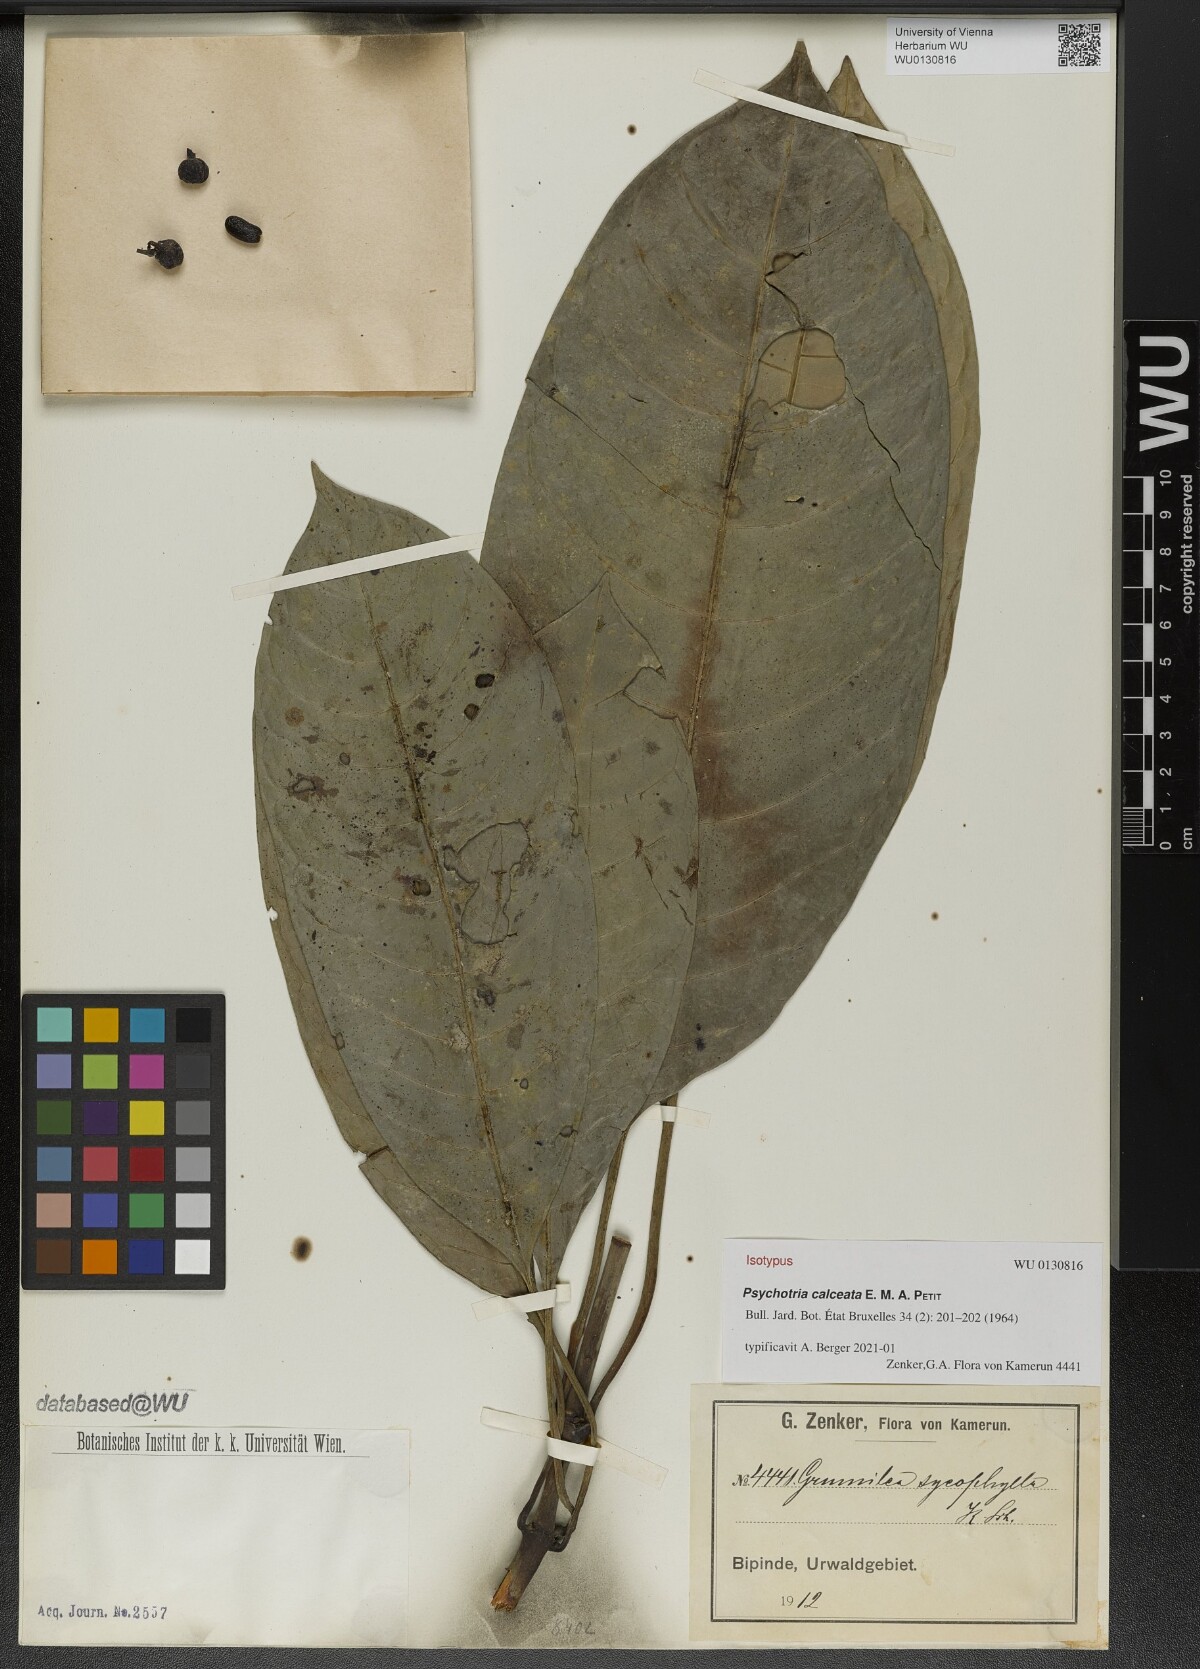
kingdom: Plantae
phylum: Tracheophyta
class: Magnoliopsida
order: Gentianales
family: Rubiaceae
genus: Psychotria
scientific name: Psychotria calceata
